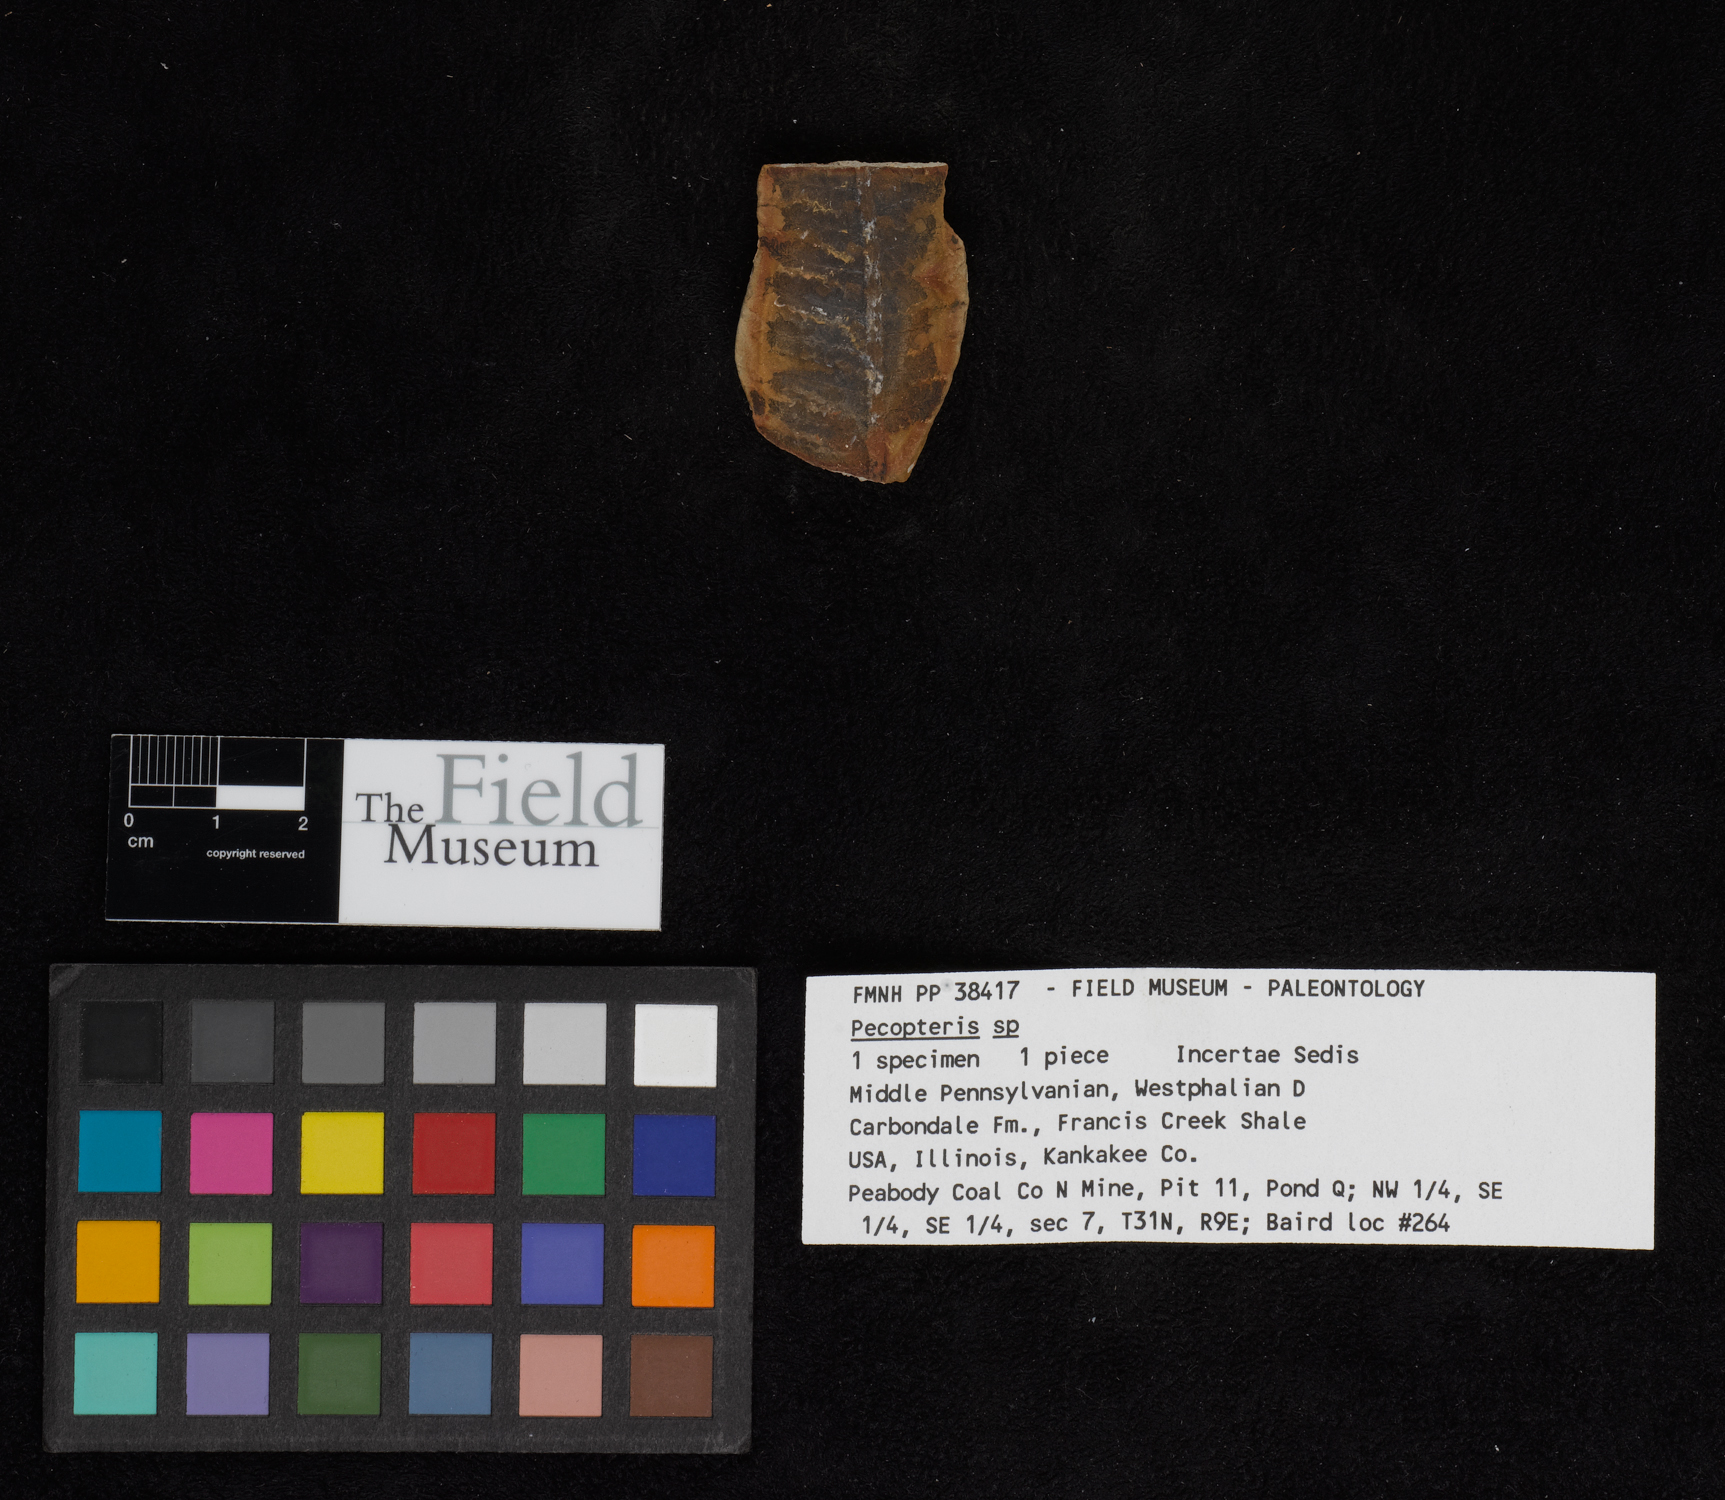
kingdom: Plantae
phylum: Tracheophyta
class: Polypodiopsida
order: Marattiales
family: Asterothecaceae
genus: Pecopteris
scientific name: Pecopteris
